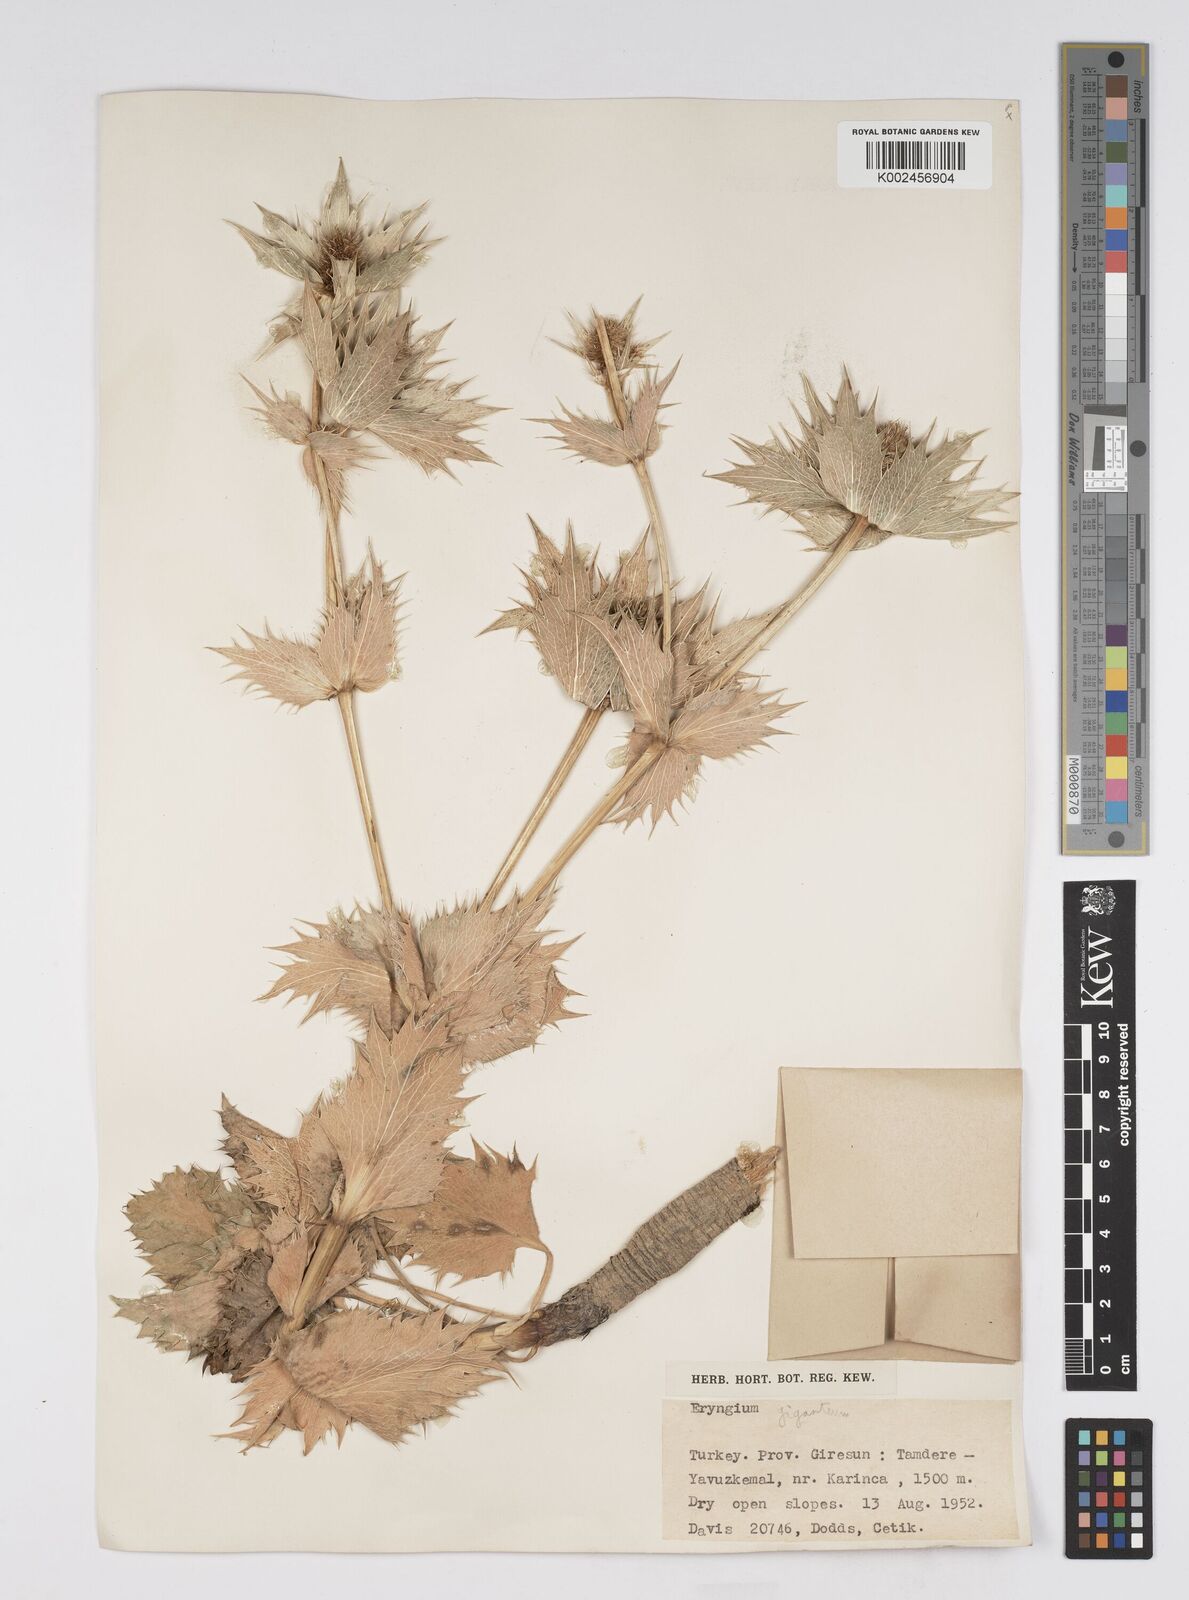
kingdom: Plantae
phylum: Tracheophyta
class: Magnoliopsida
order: Apiales
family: Apiaceae
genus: Eryngium
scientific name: Eryngium giganteum
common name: Tall eryngo
